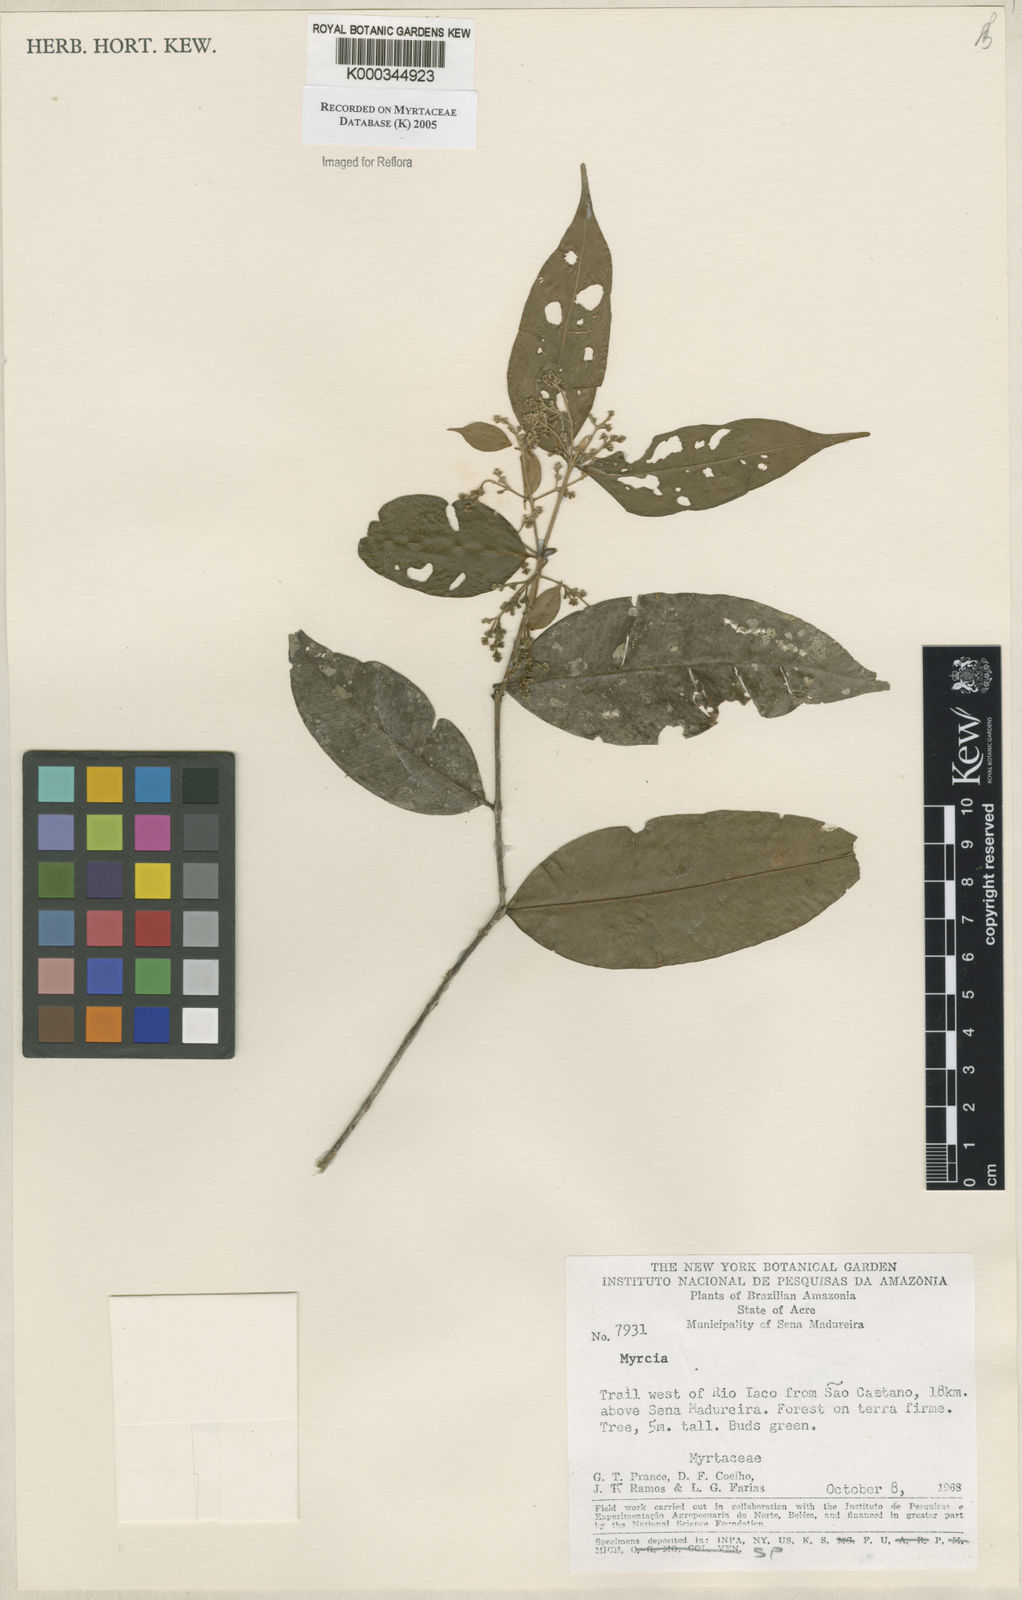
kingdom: Plantae
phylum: Tracheophyta
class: Magnoliopsida
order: Myrtales
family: Myrtaceae
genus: Myrcia
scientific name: Myrcia splendens
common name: Surinam cherry
